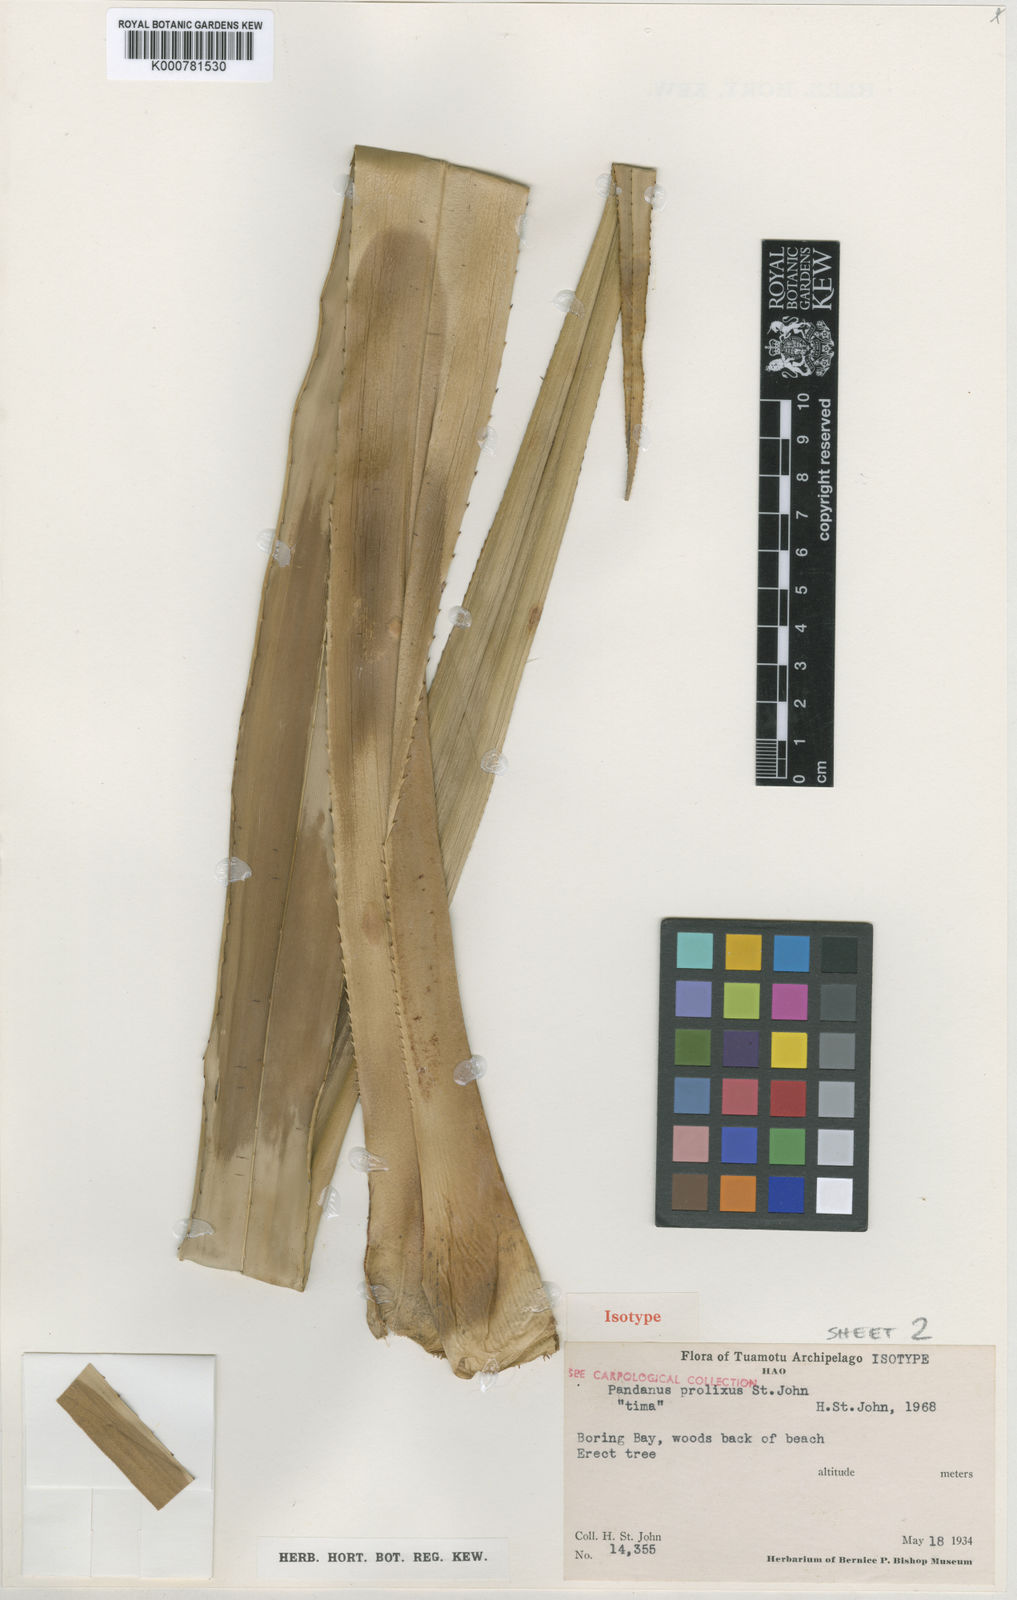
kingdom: Plantae
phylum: Tracheophyta
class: Liliopsida
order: Pandanales
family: Pandanaceae
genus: Pandanus
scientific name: Pandanus tectorius
